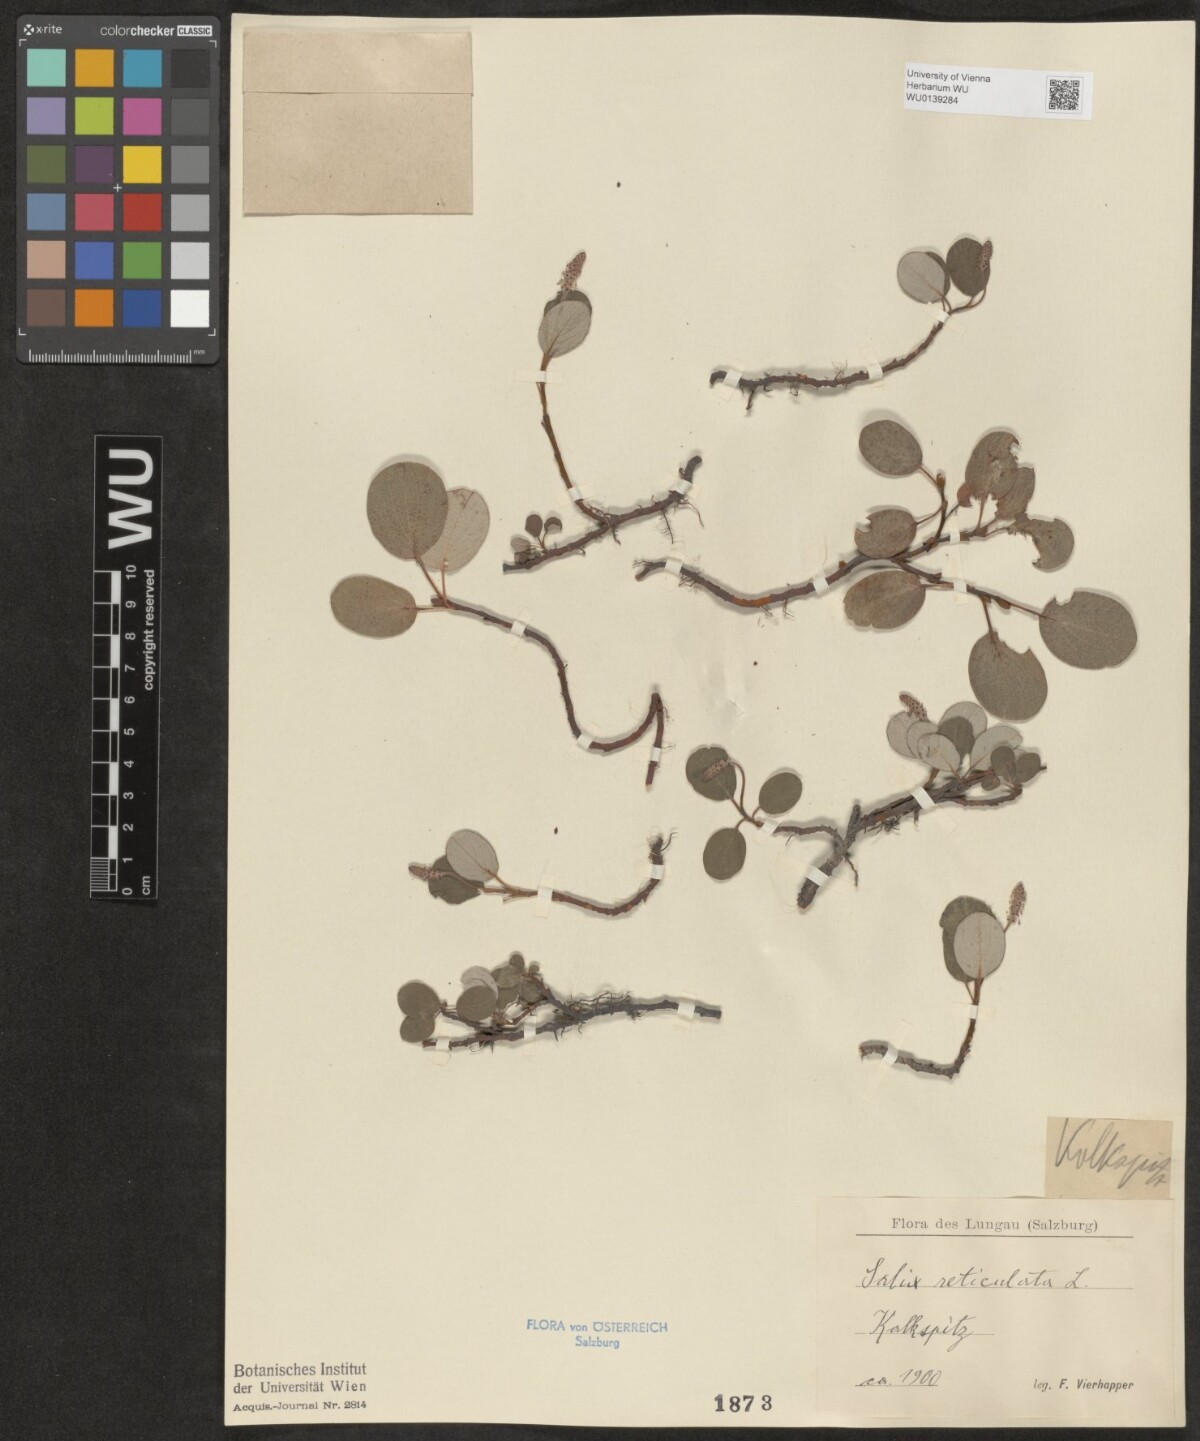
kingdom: Plantae
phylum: Tracheophyta
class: Magnoliopsida
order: Malpighiales
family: Salicaceae
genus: Salix
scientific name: Salix reticulata
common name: Net-leaved willow
